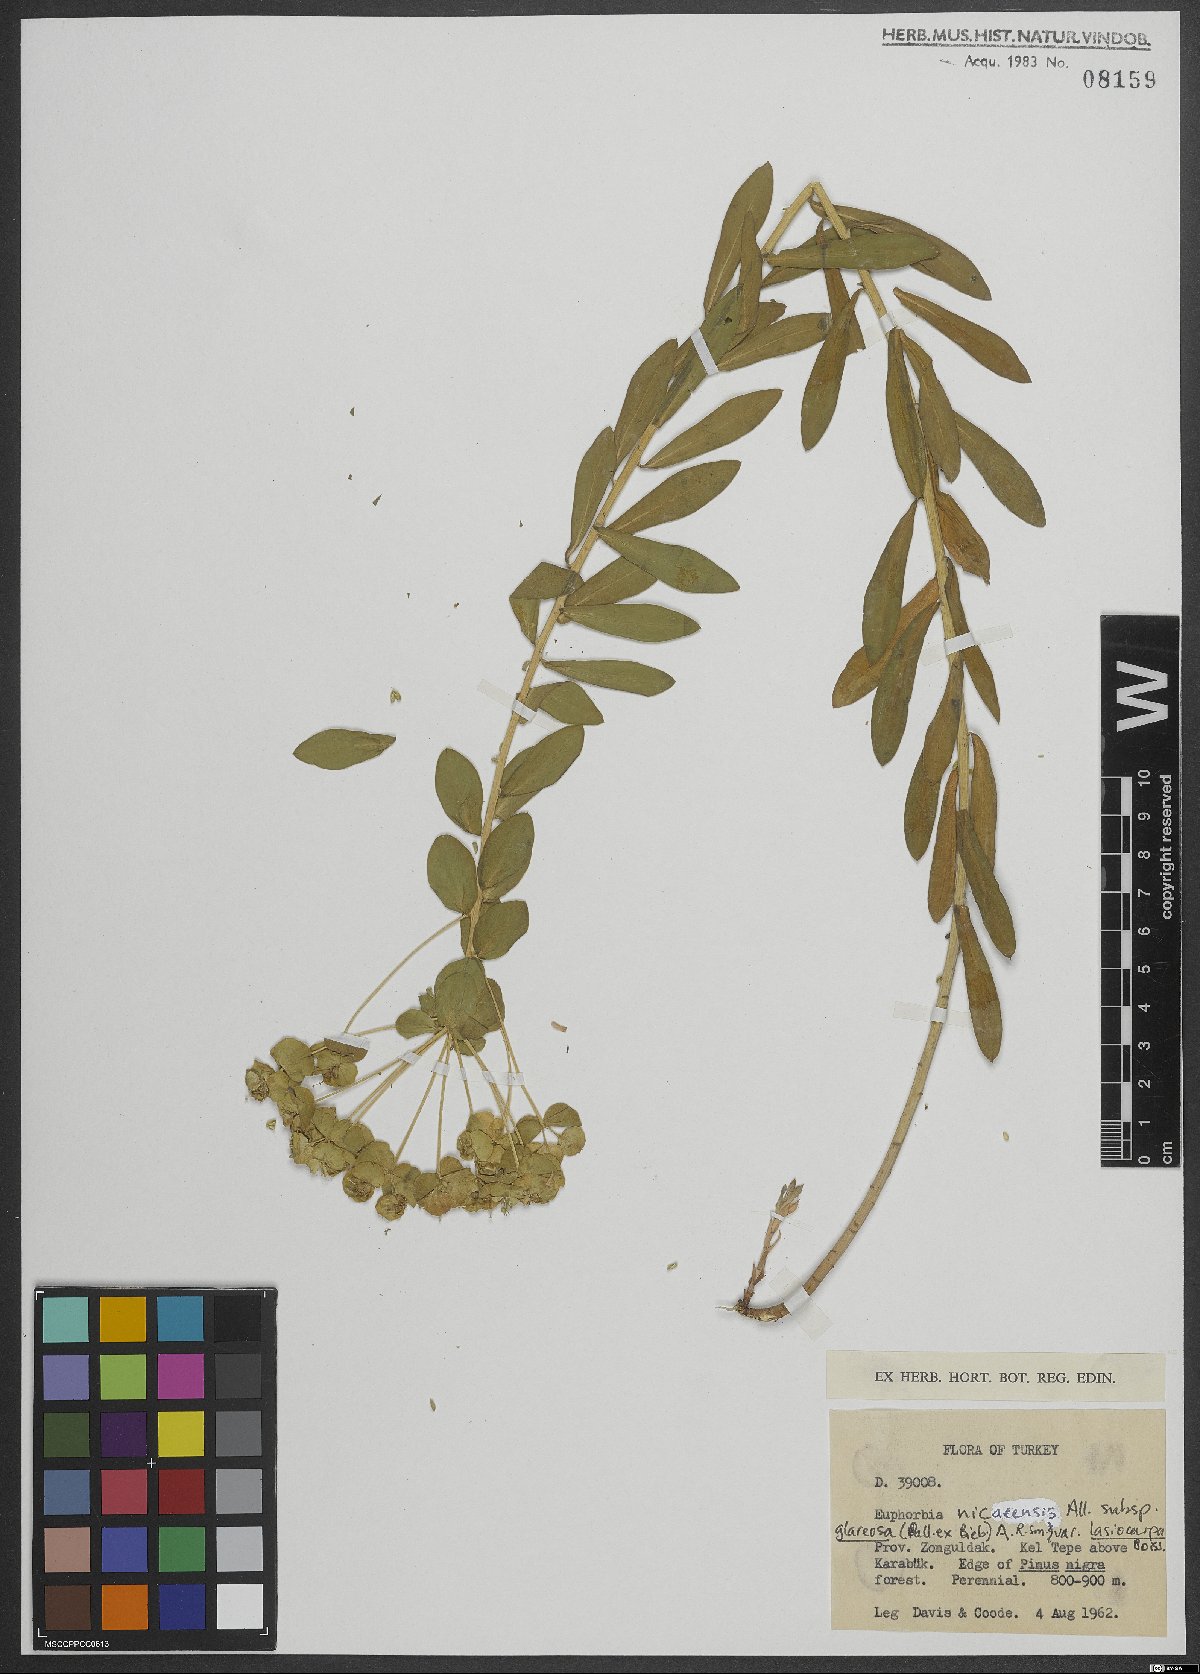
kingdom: Plantae
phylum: Tracheophyta
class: Magnoliopsida
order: Malpighiales
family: Euphorbiaceae
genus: Euphorbia
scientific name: Euphorbia glareosa
